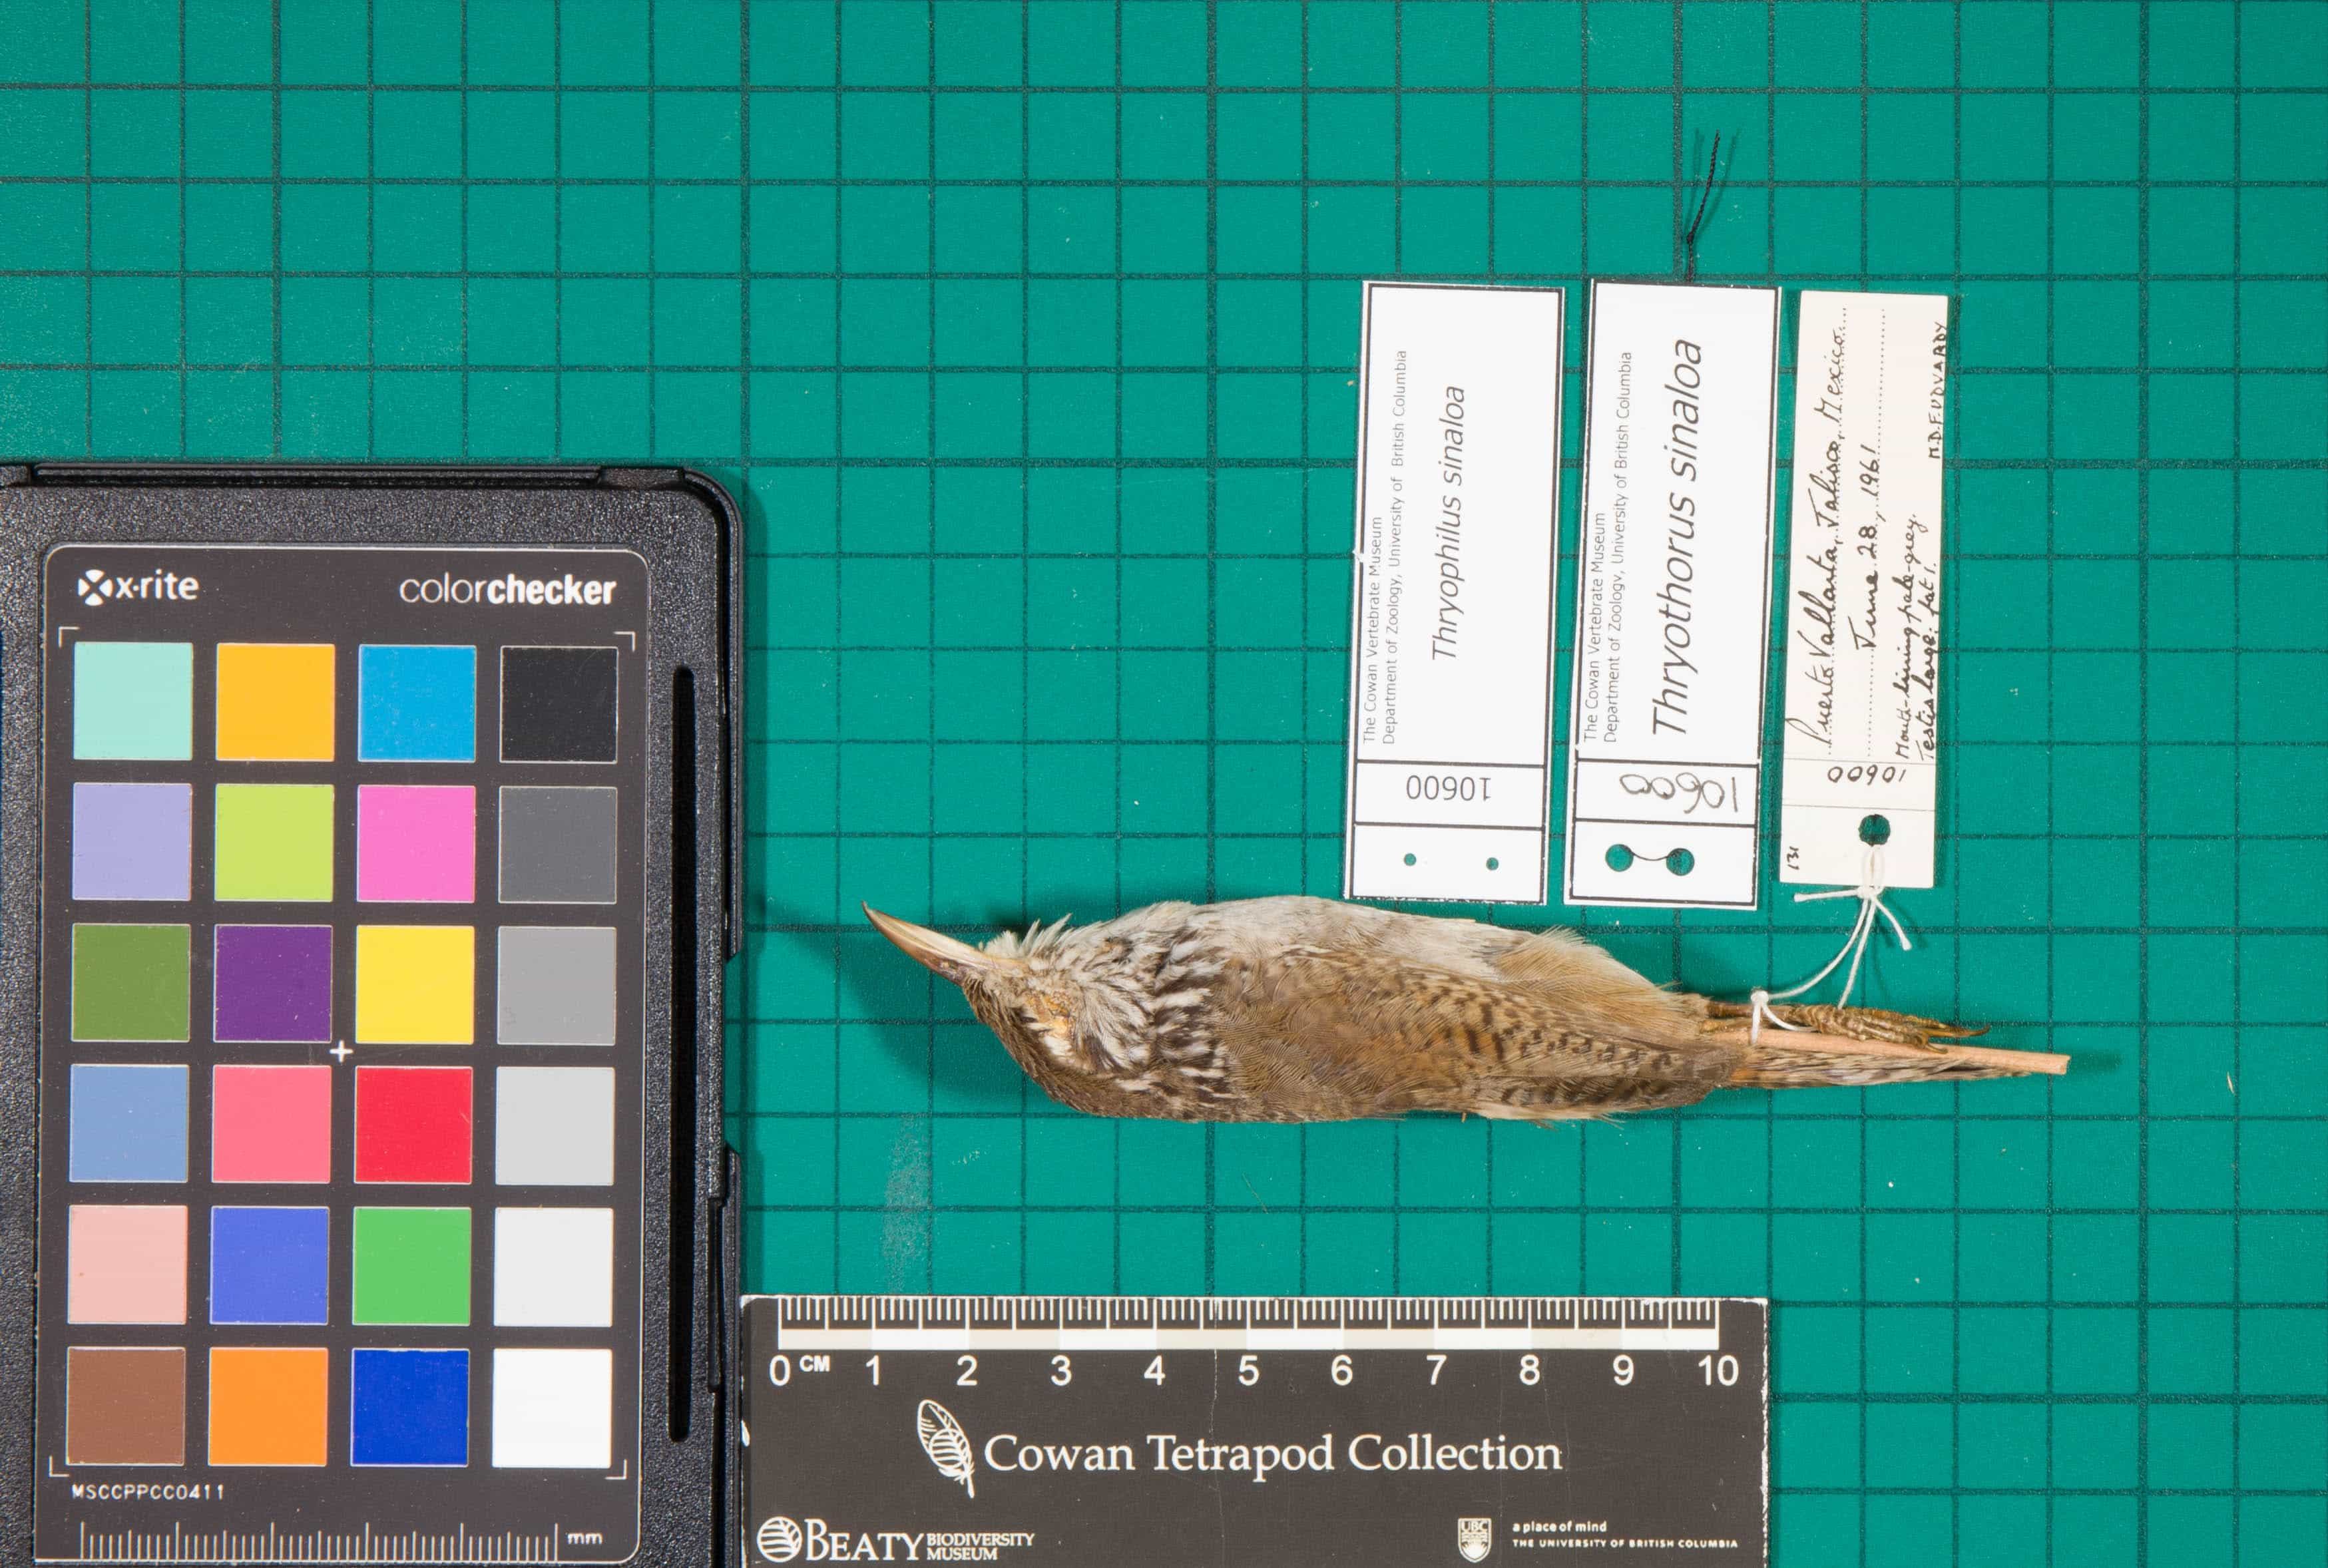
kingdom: Animalia
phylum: Chordata
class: Aves
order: Passeriformes
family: Troglodytidae
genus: Thryophilus
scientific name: Thryophilus sinaloa
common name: Sinaloa Wren
